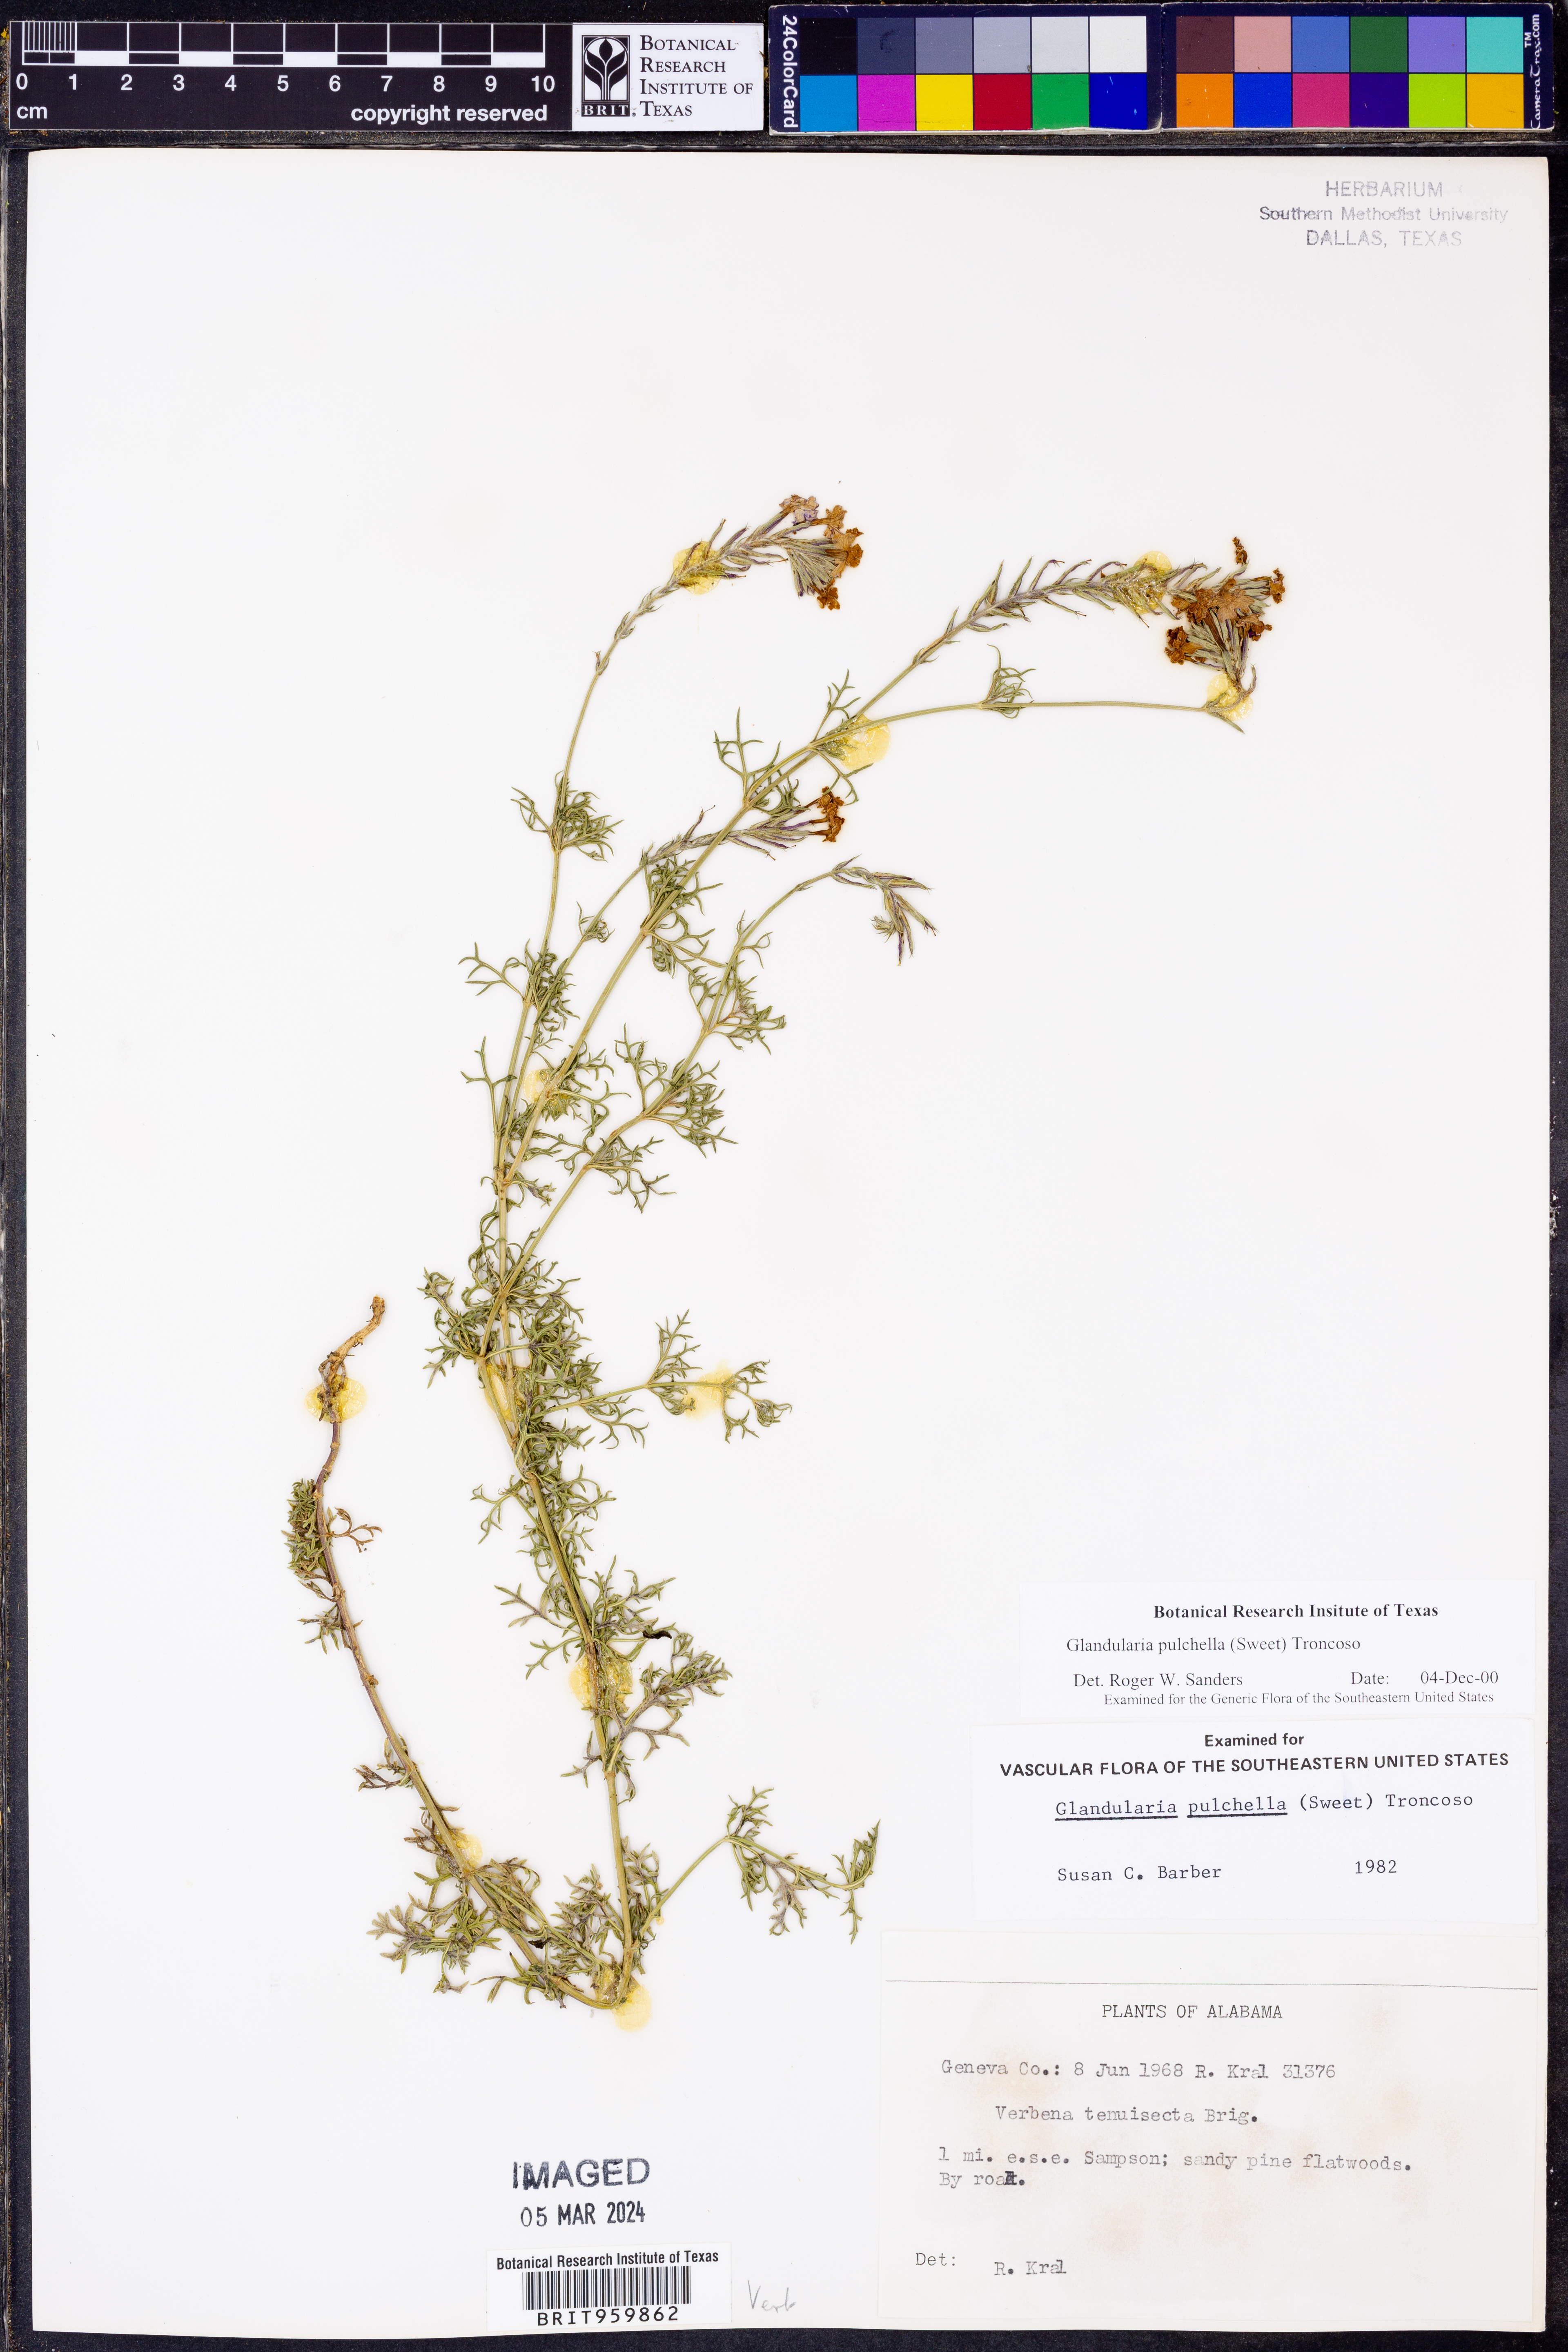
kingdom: Plantae
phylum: Tracheophyta
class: Magnoliopsida
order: Lamiales
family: Verbenaceae
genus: Verbena
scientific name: Verbena tenera
